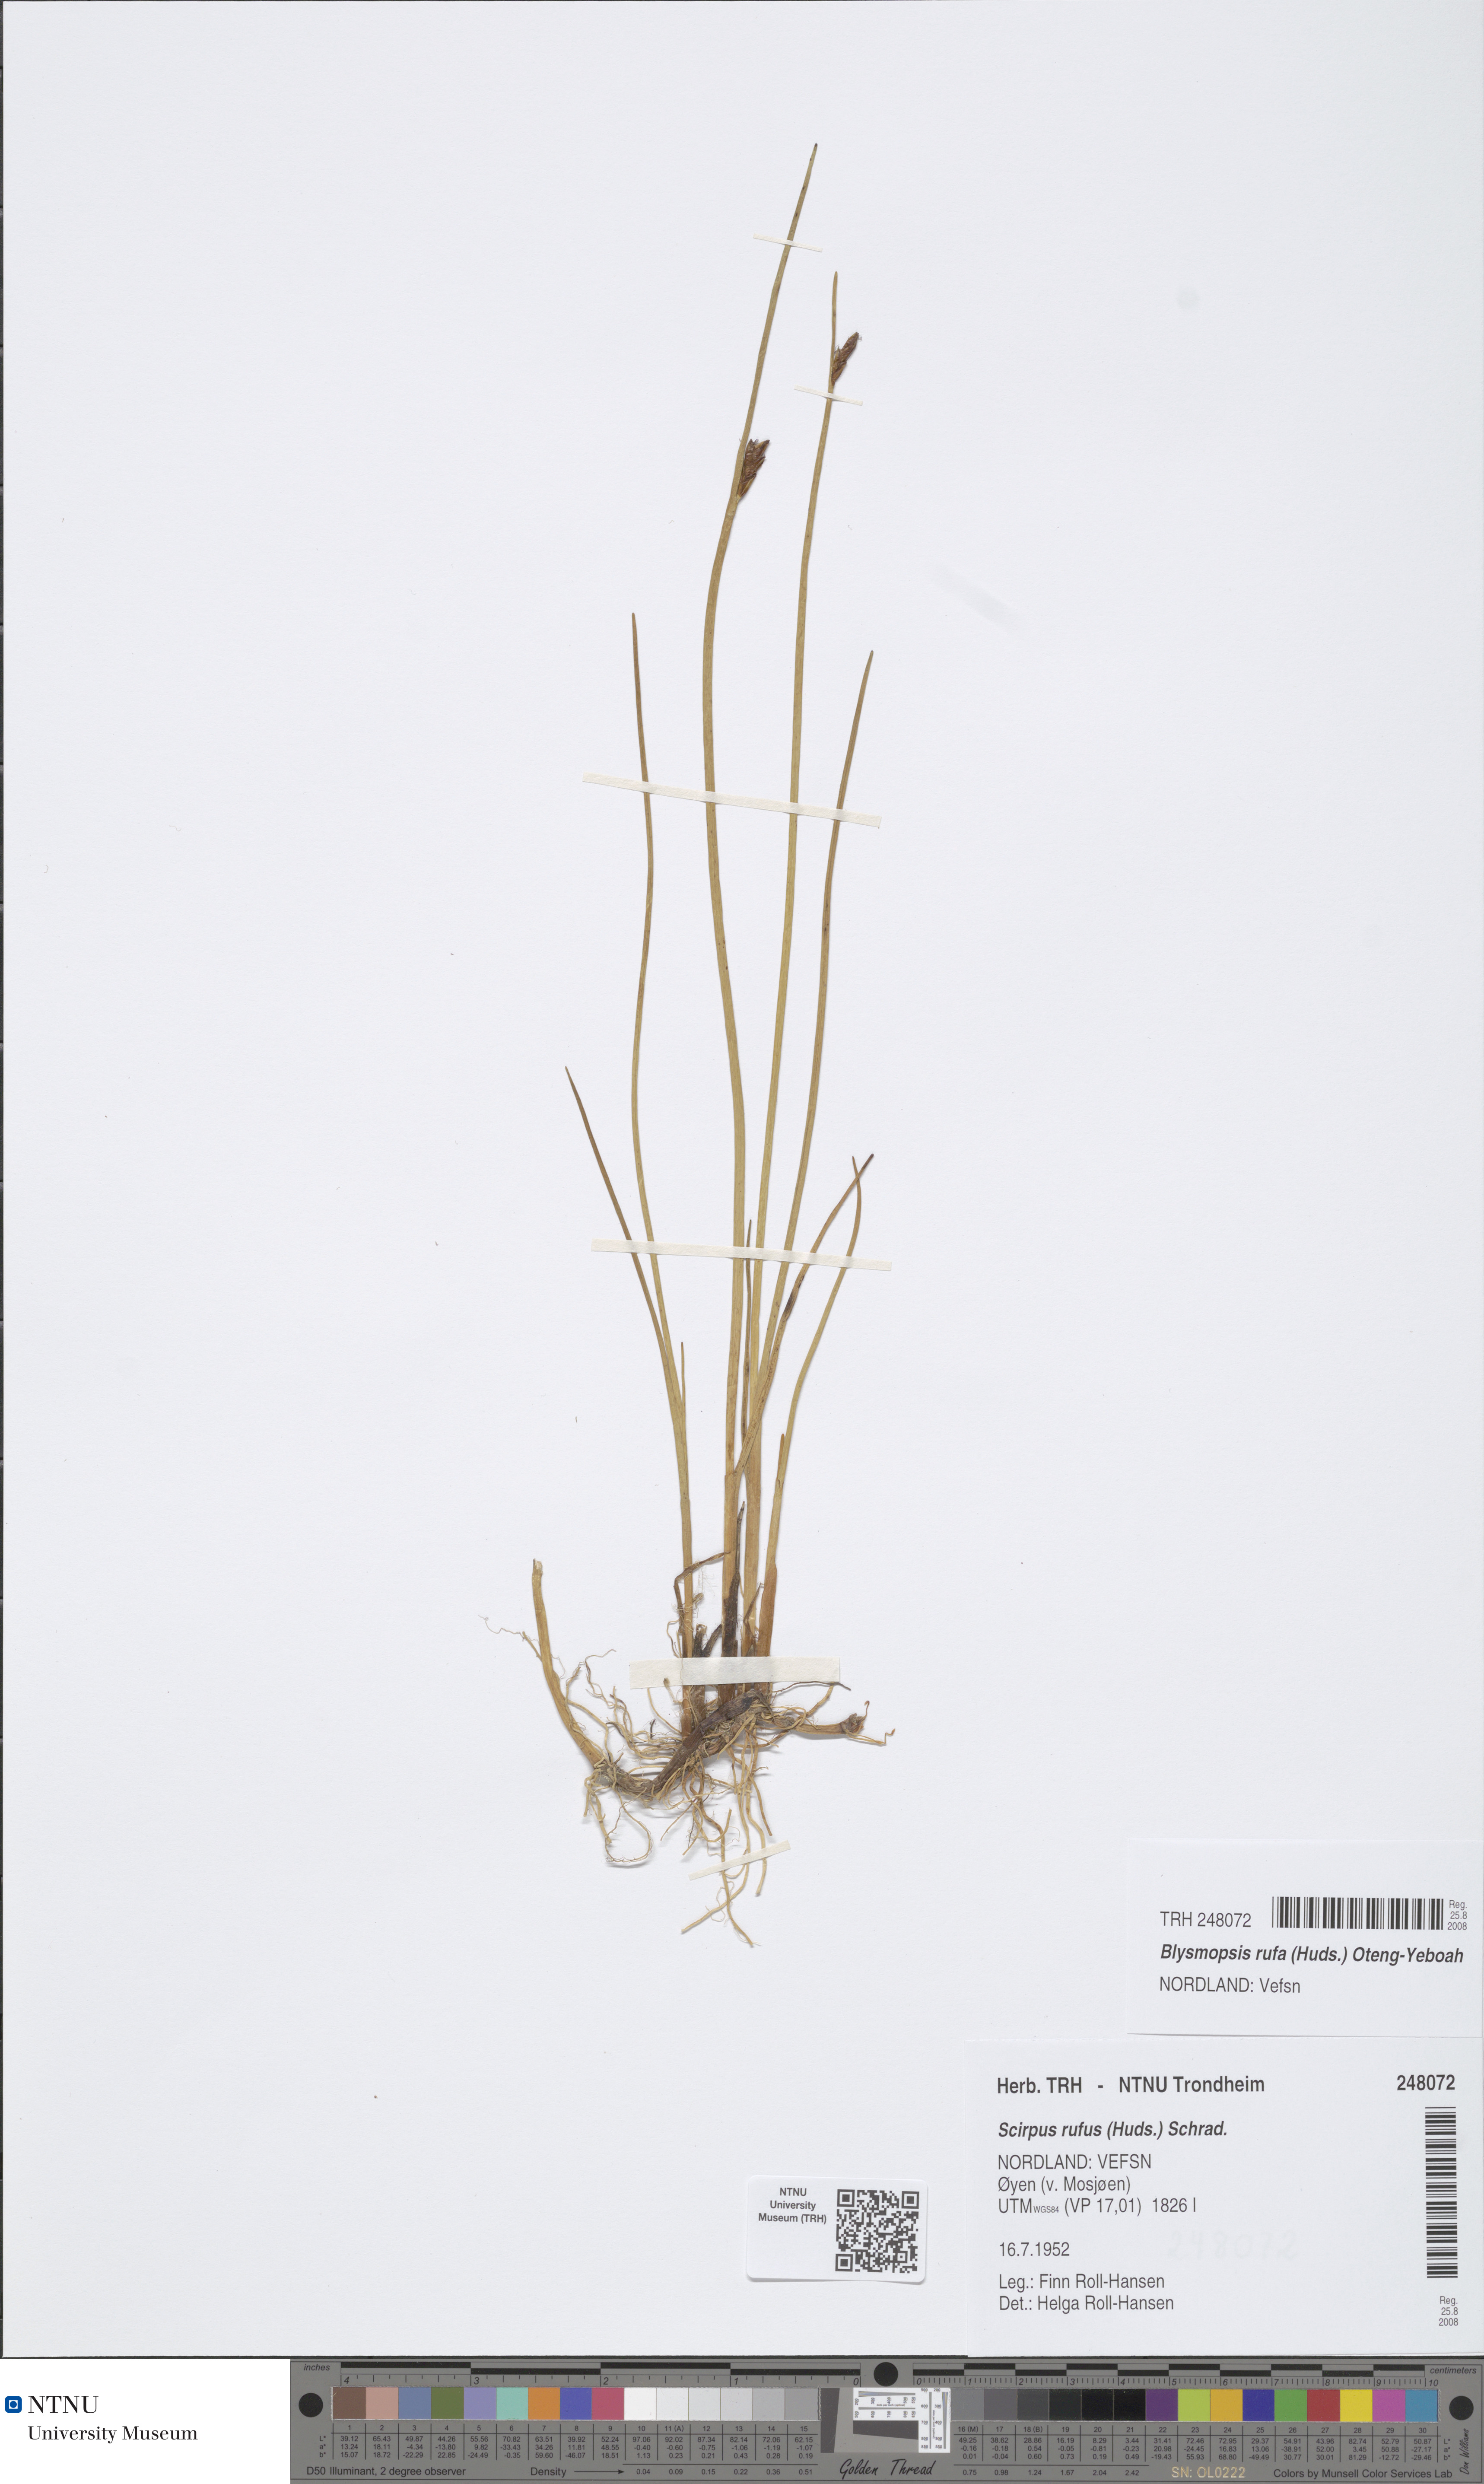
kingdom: Plantae
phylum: Tracheophyta
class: Liliopsida
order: Poales
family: Cyperaceae
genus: Blysmus
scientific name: Blysmus rufus
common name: Saltmarsh flat-sedge
